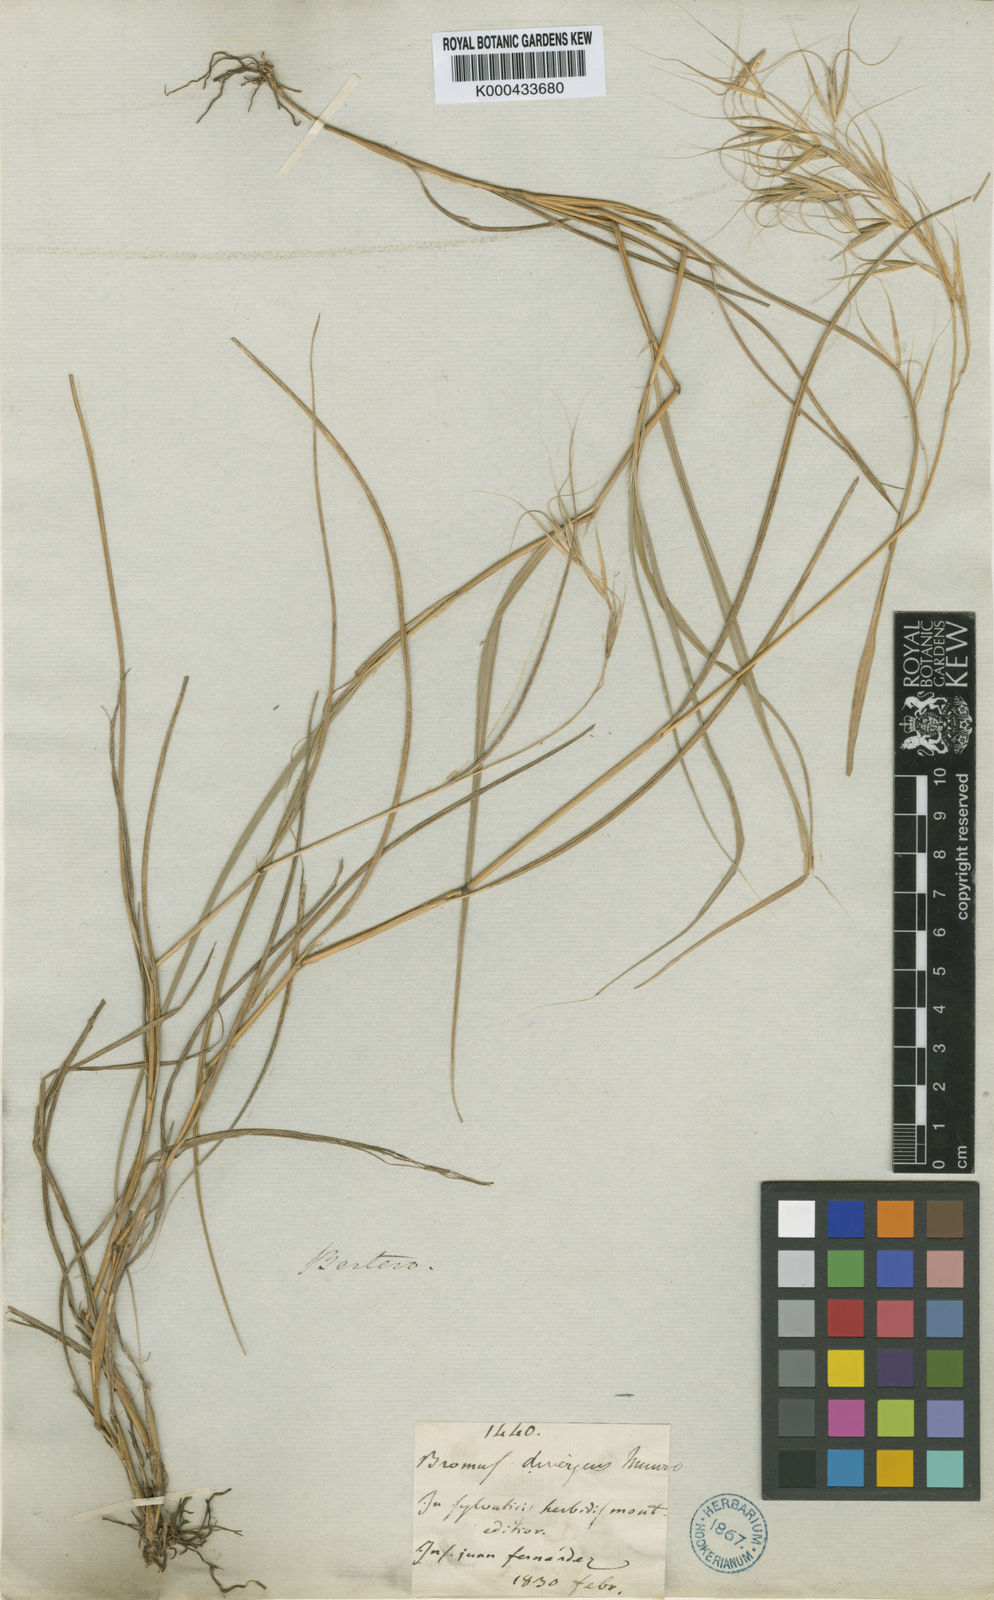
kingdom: Plantae
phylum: Tracheophyta
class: Liliopsida
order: Poales
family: Poaceae
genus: Megalachne
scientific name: Megalachne berteroniana
